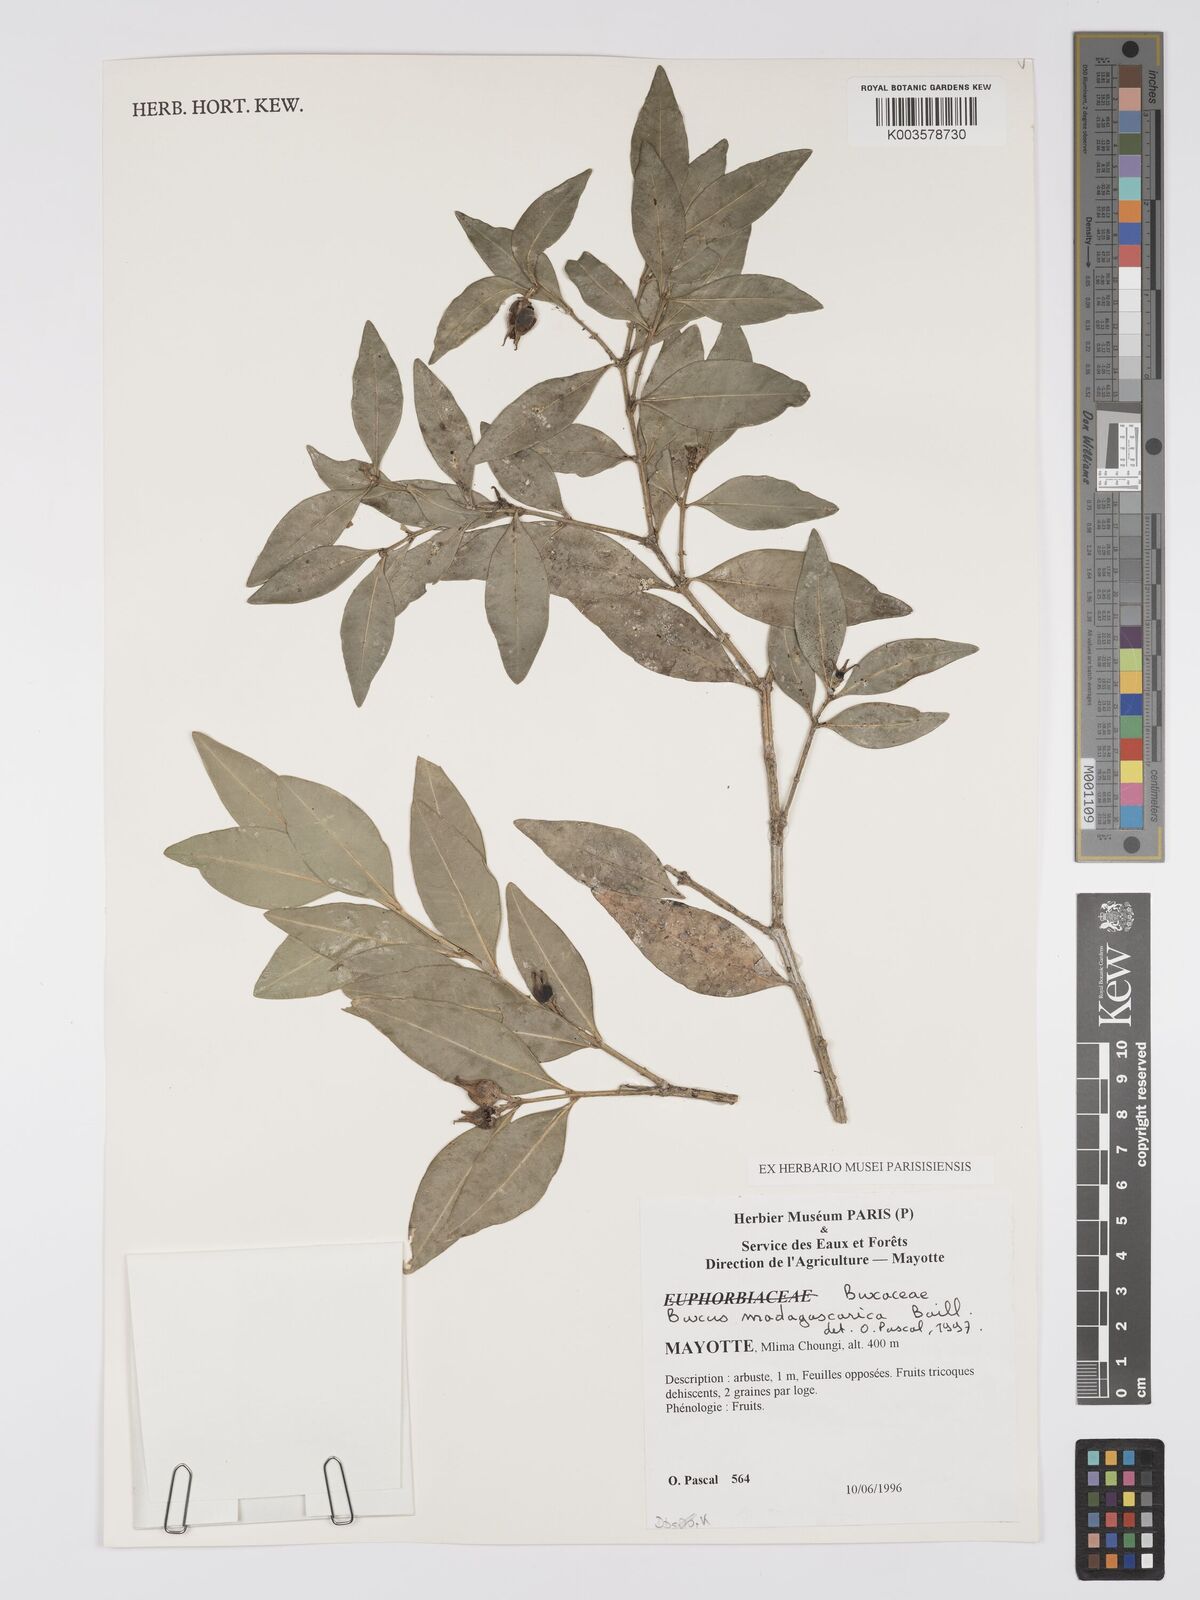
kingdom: Plantae
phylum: Tracheophyta
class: Magnoliopsida
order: Buxales
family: Buxaceae
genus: Buxus
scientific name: Buxus madagascarica
